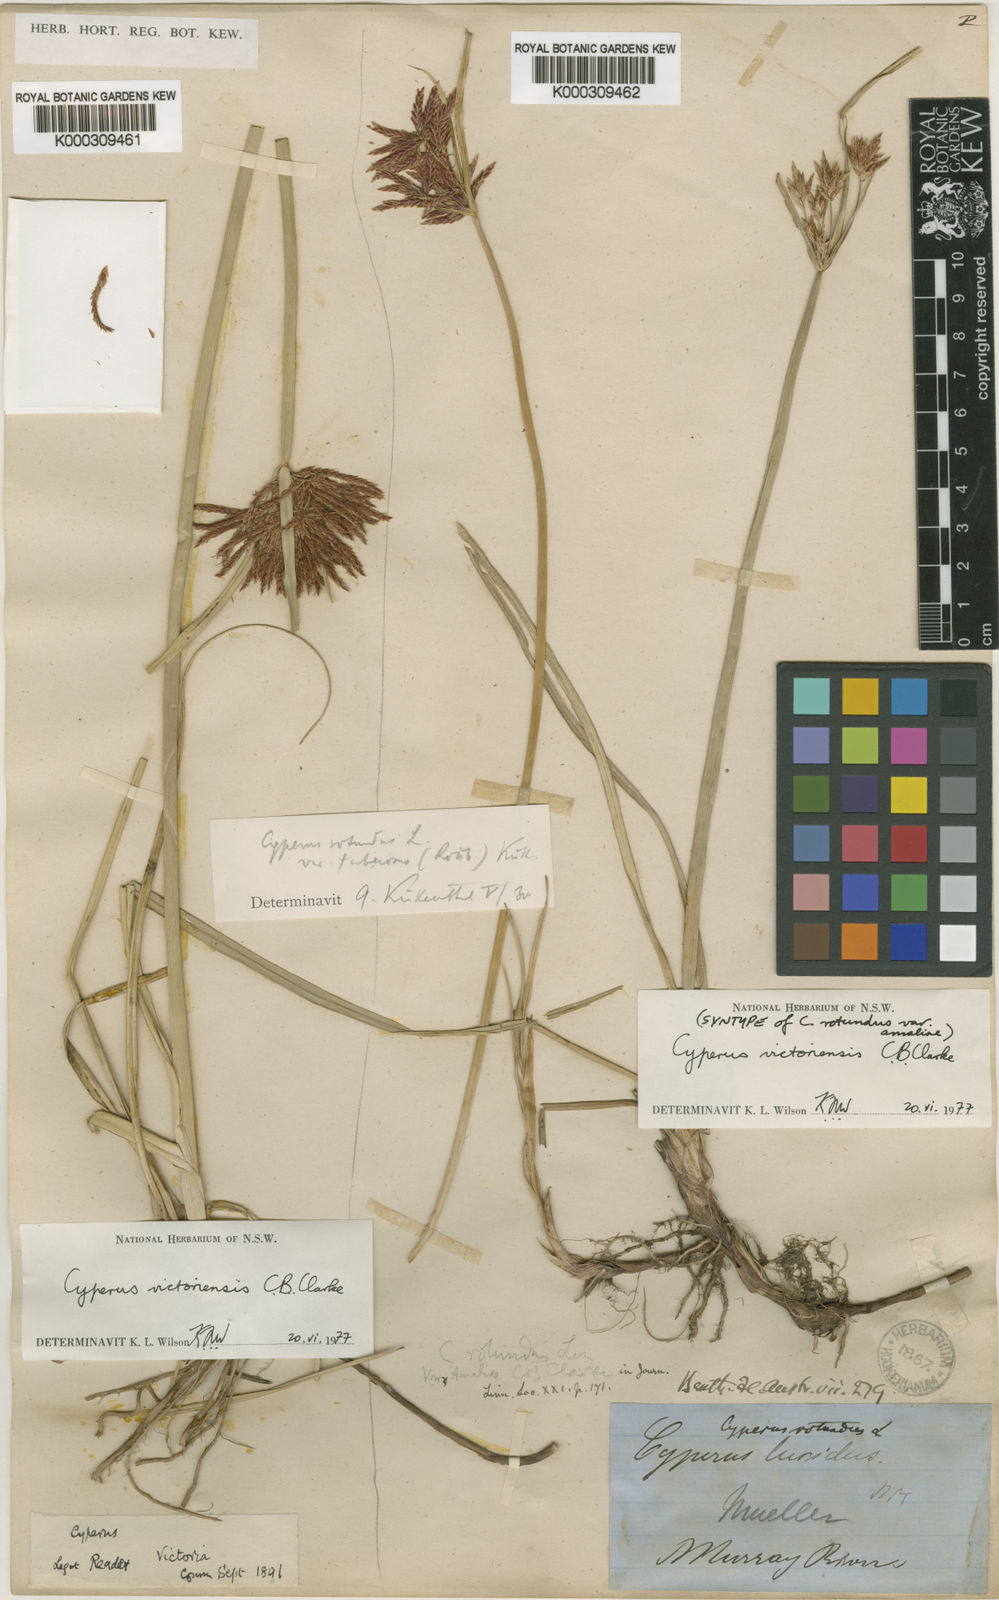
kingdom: Plantae
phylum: Tracheophyta
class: Liliopsida
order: Poales
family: Cyperaceae
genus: Cyperus
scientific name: Cyperus victoriensis
